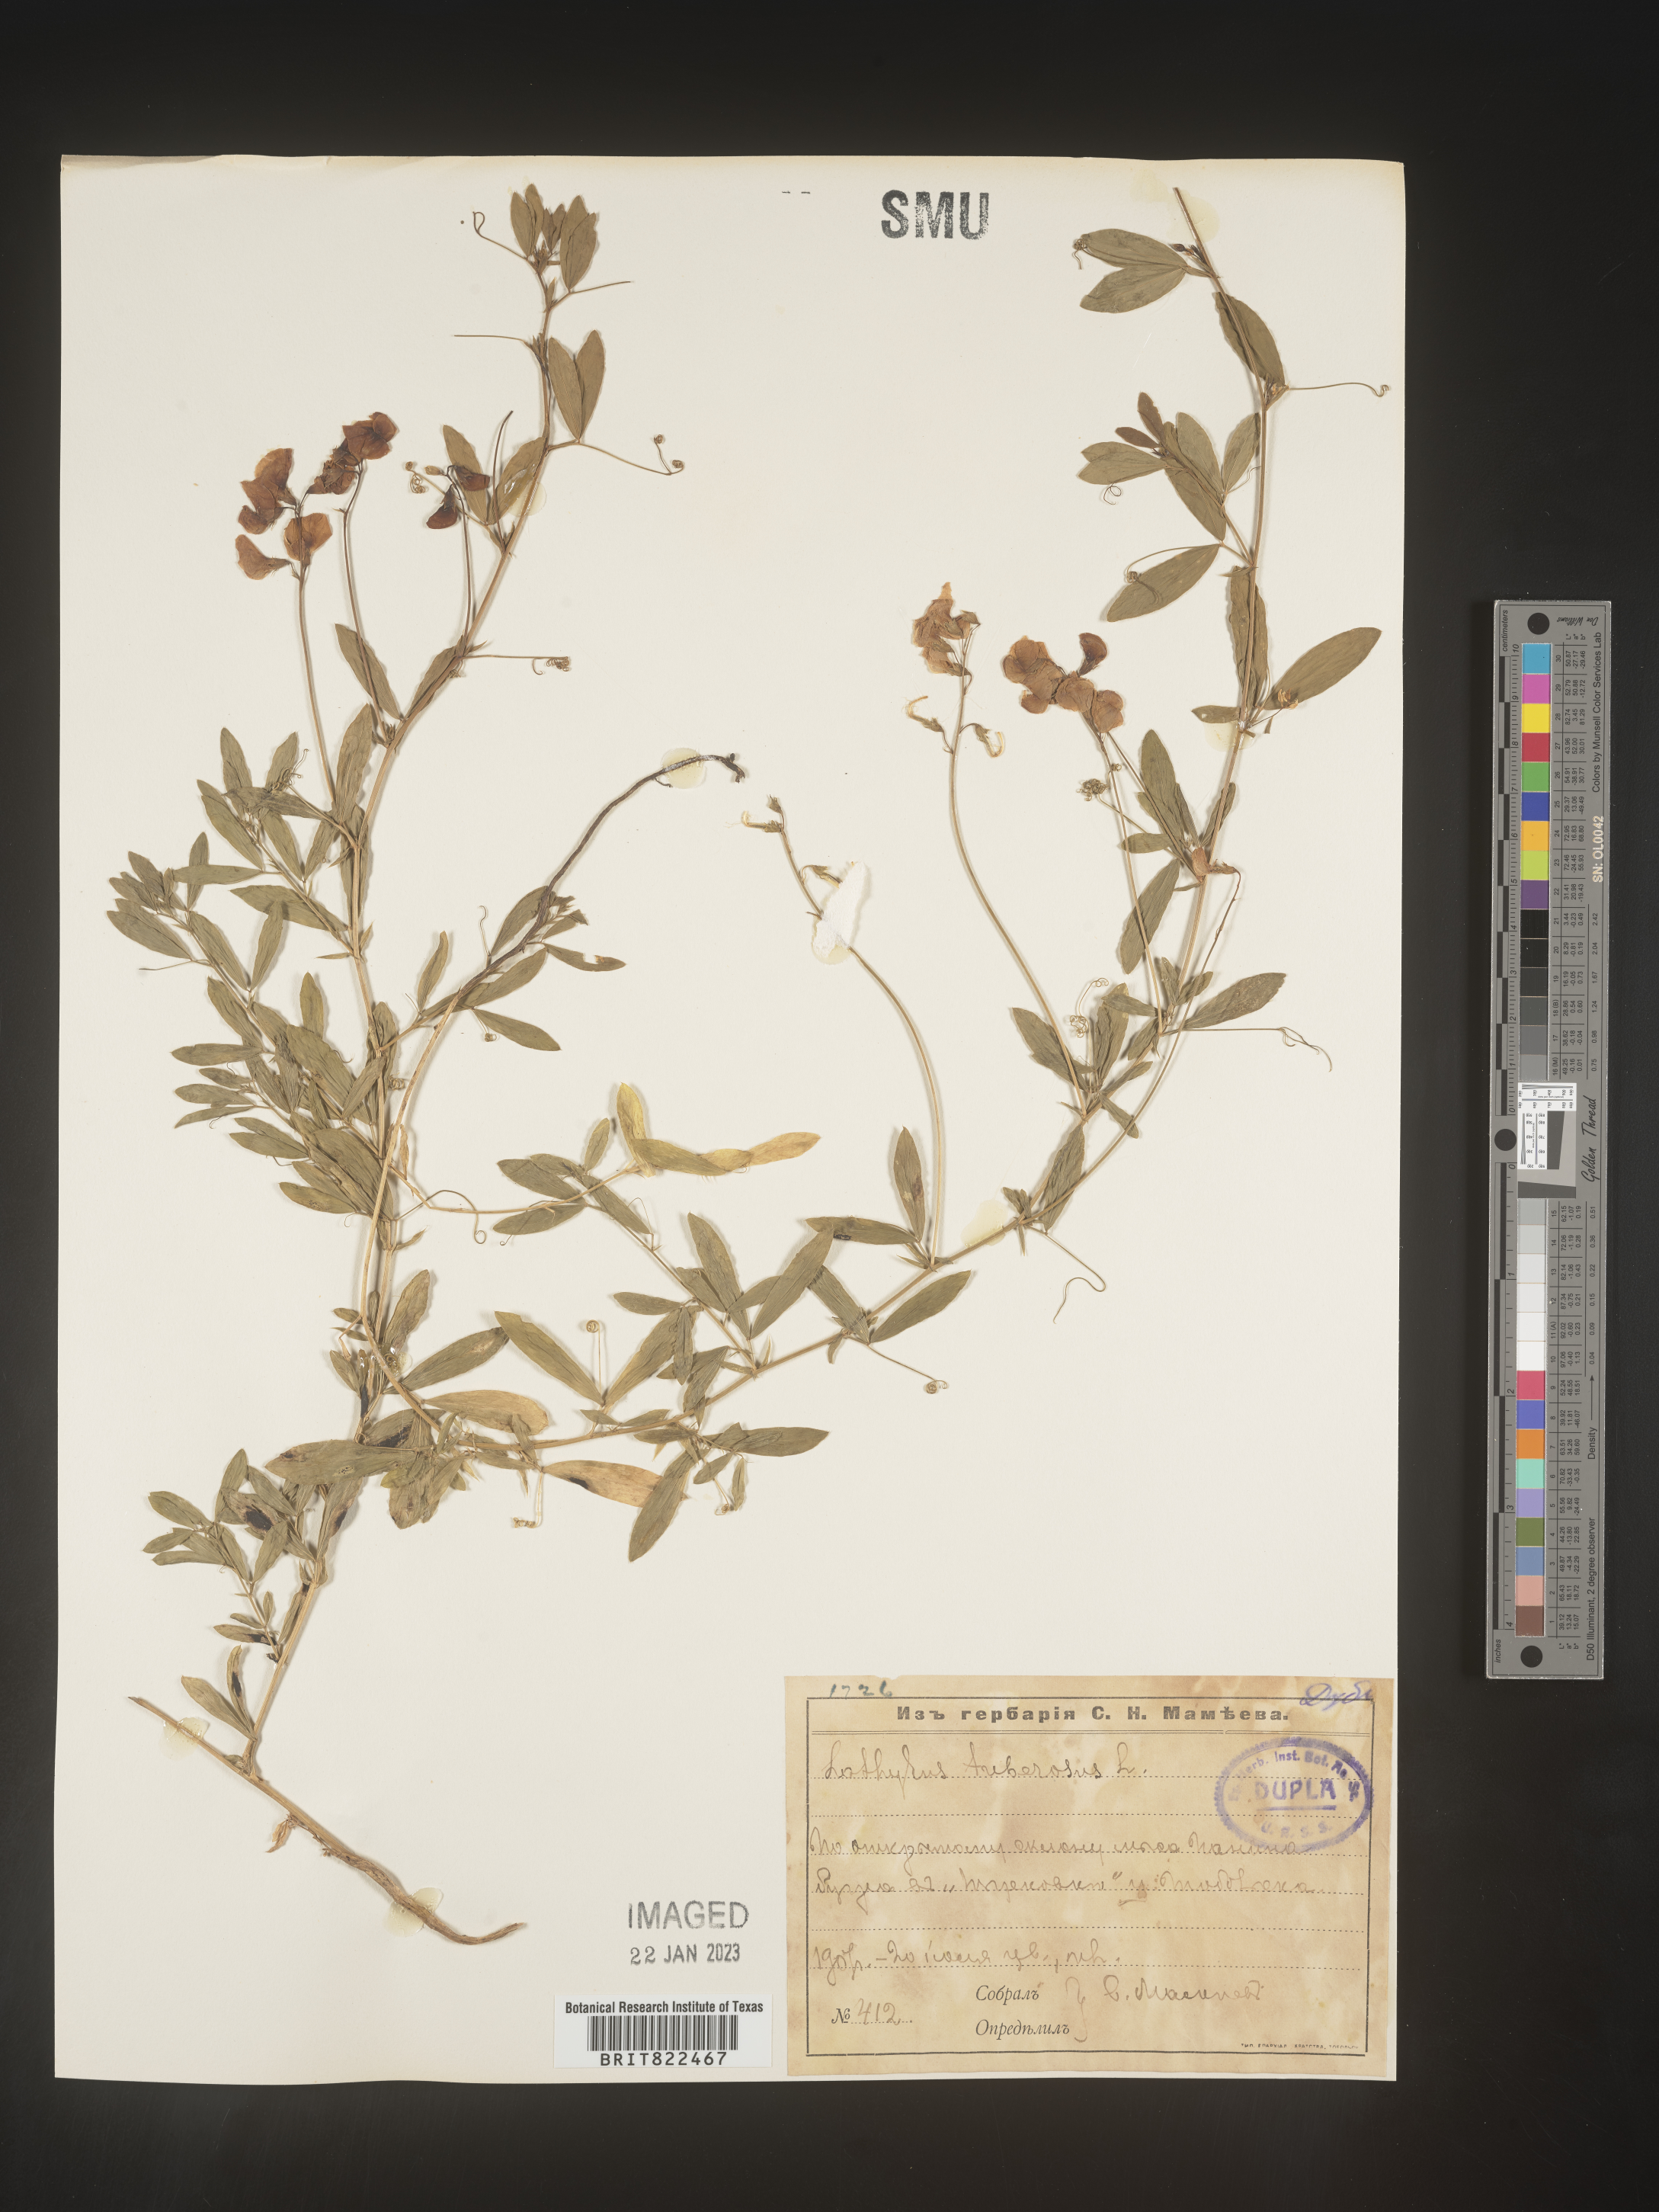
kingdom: Plantae
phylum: Tracheophyta
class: Magnoliopsida
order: Fabales
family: Fabaceae
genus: Lathyrus
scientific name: Lathyrus
